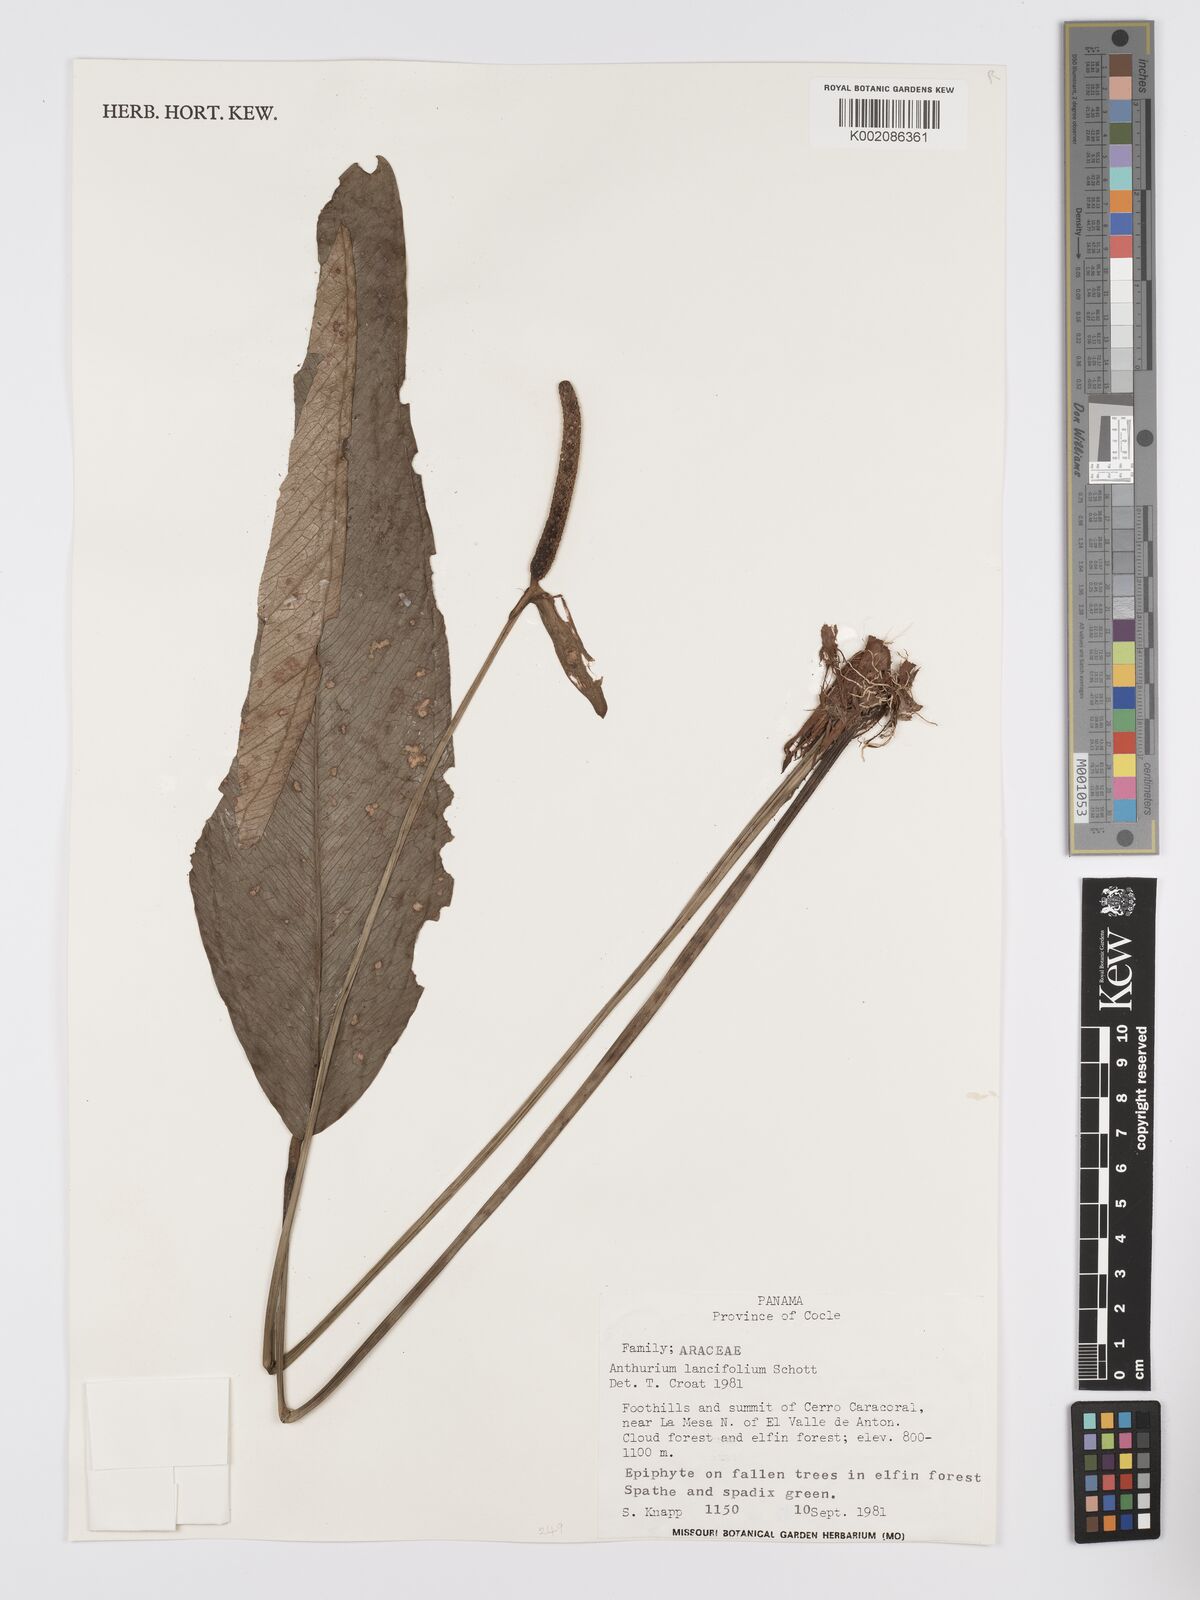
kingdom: Plantae
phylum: Tracheophyta
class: Liliopsida
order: Alismatales
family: Araceae
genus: Anthurium
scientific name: Anthurium lancifolium
